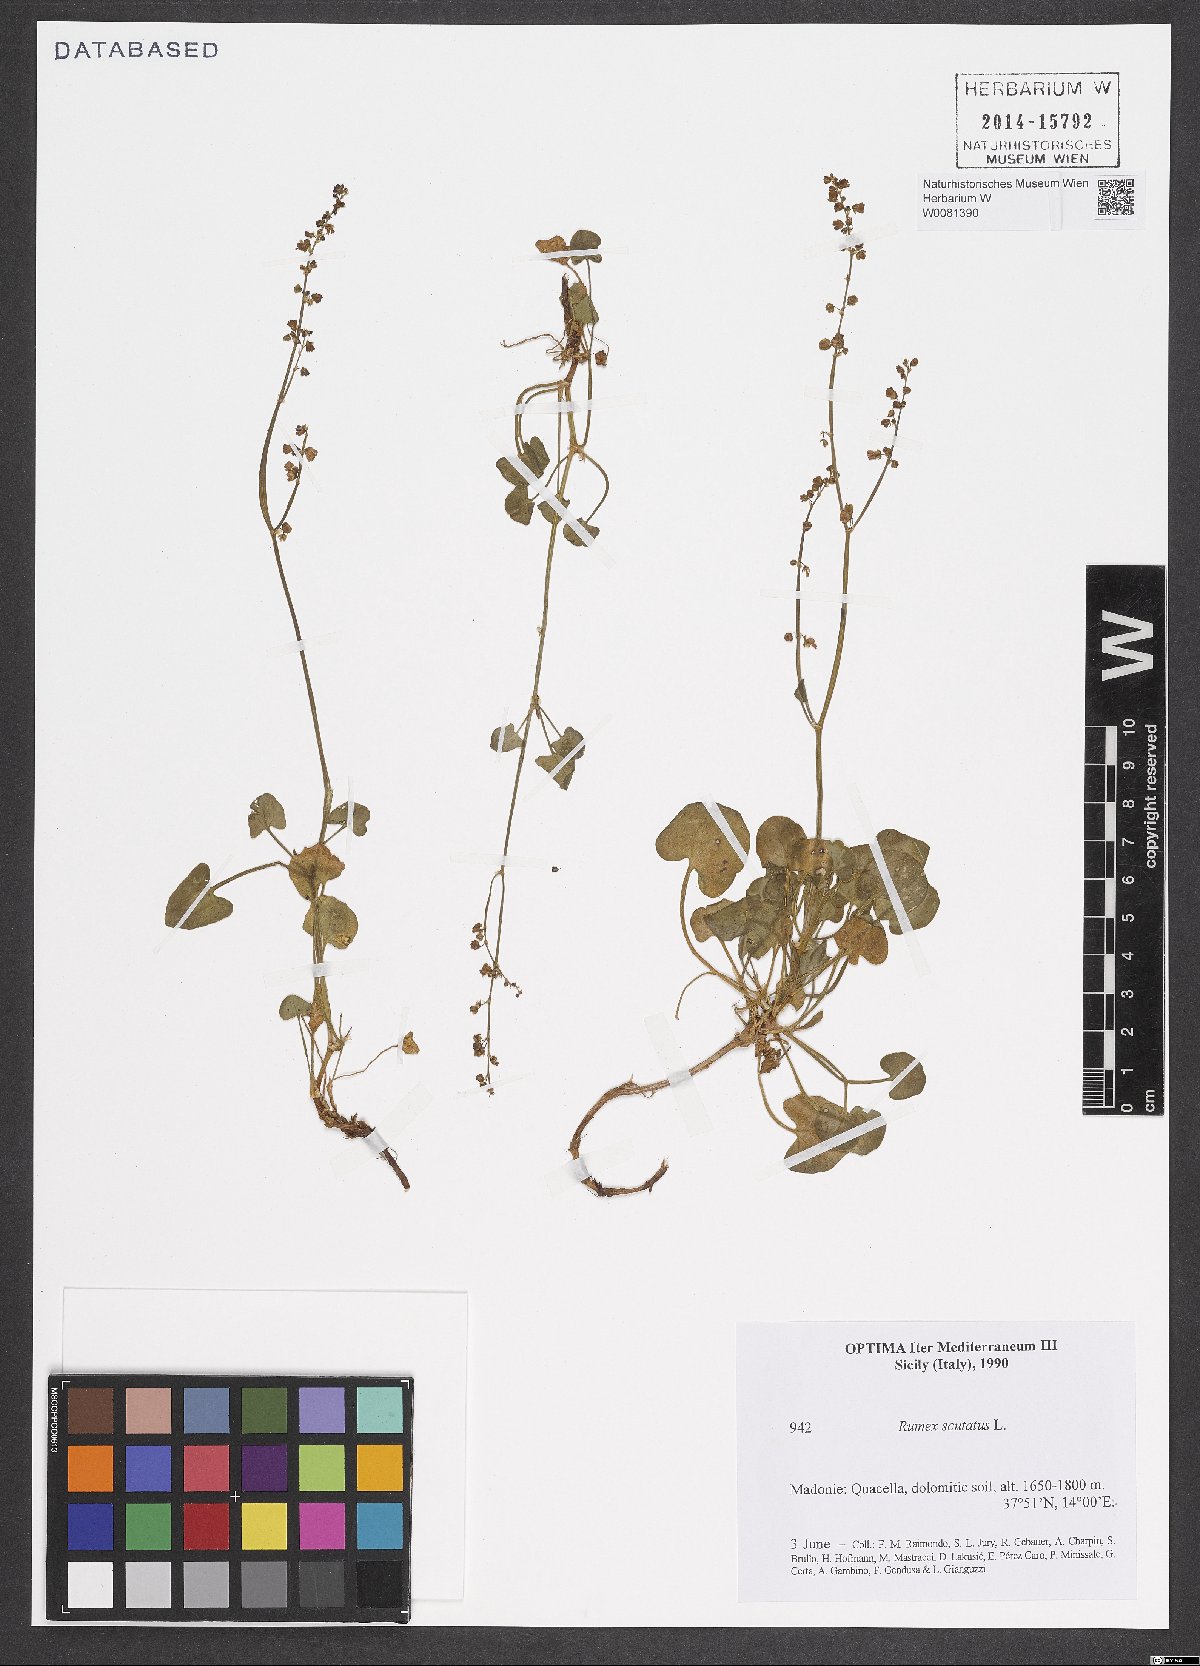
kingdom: Plantae
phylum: Tracheophyta
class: Magnoliopsida
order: Caryophyllales
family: Polygonaceae
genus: Rumex
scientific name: Rumex scutatus
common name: French sorrel
